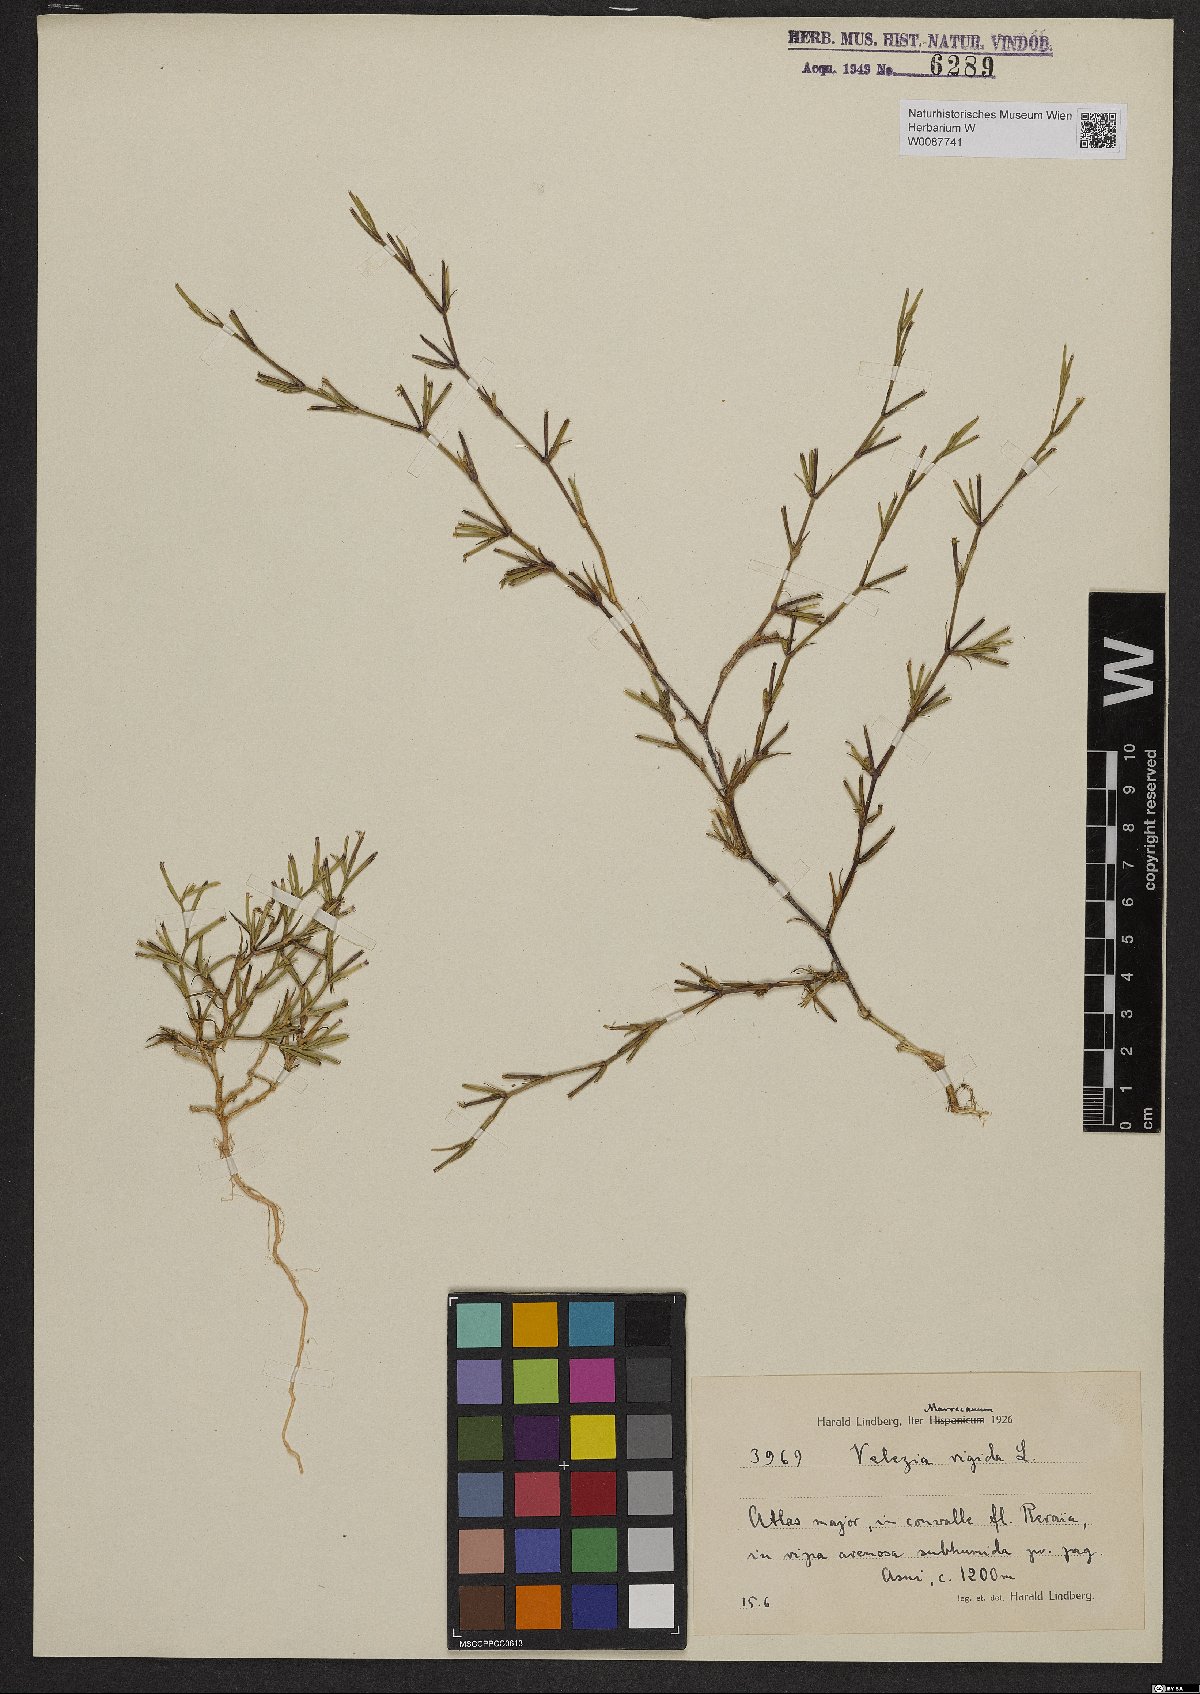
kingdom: Plantae
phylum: Tracheophyta
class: Magnoliopsida
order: Caryophyllales
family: Caryophyllaceae
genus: Dianthus
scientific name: Dianthus nudiflorus
